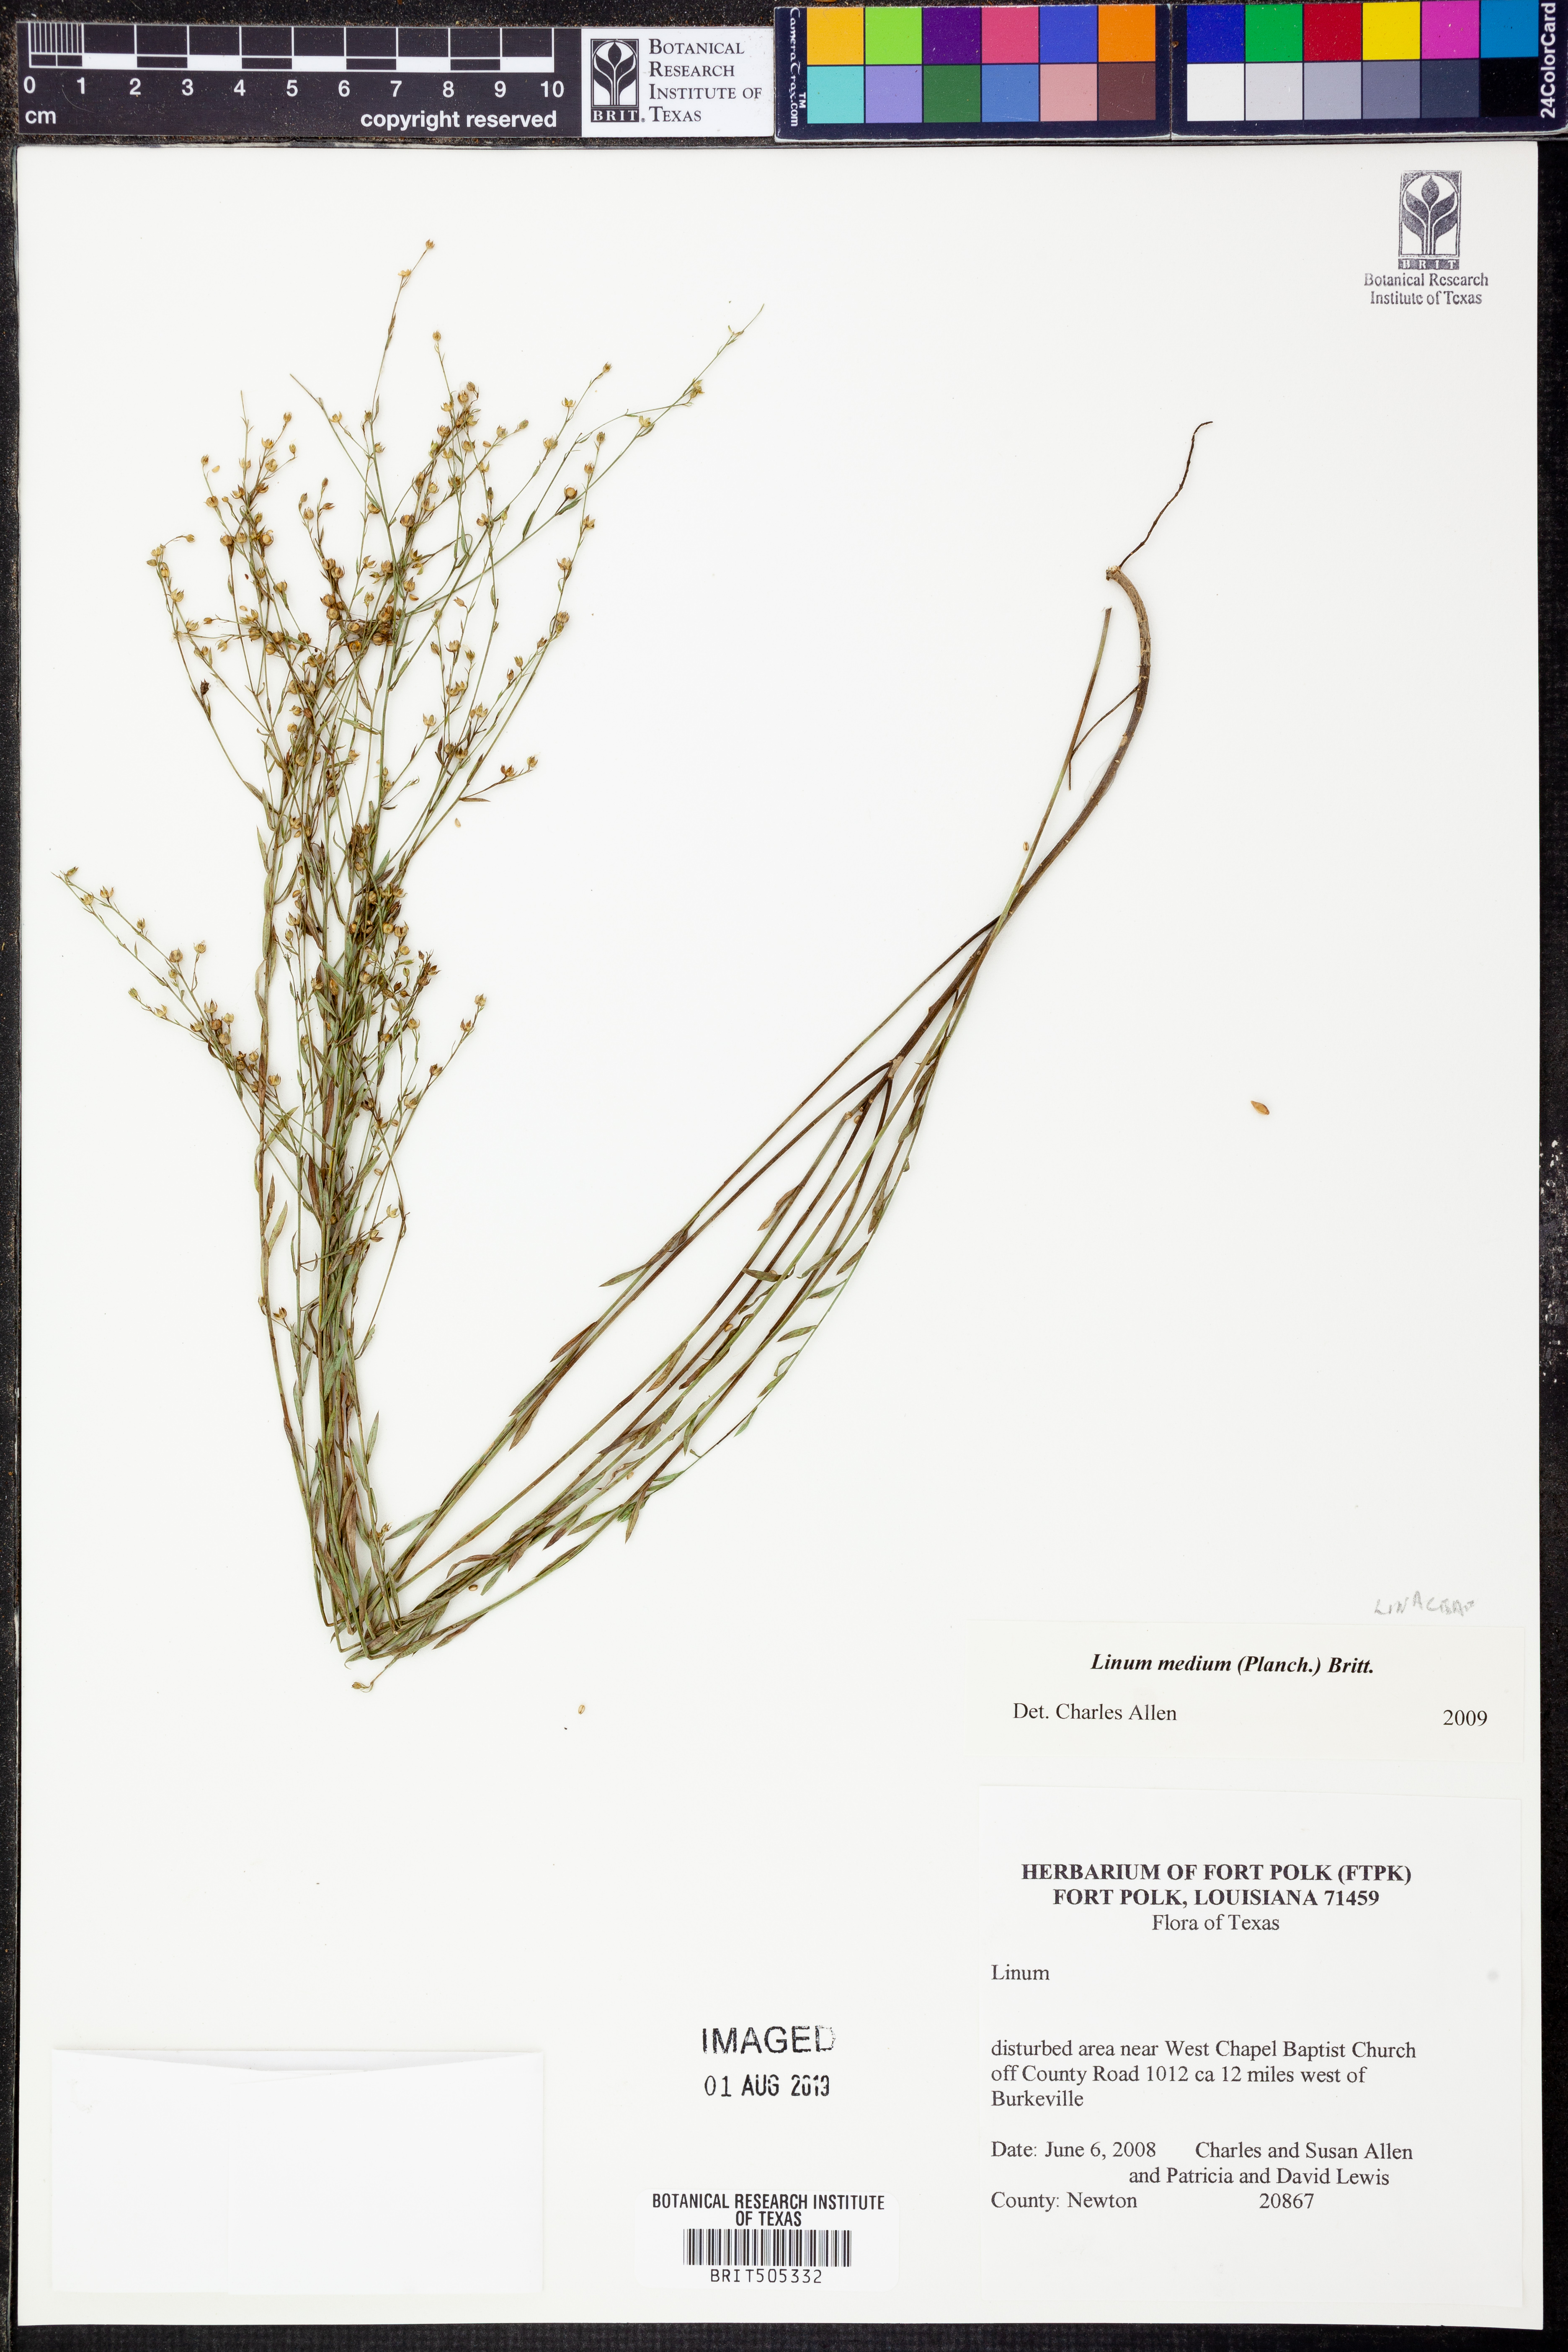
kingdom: Plantae
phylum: Tracheophyta
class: Magnoliopsida
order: Malpighiales
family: Linaceae
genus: Linum
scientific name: Linum medium
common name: Stiff yellow flax
